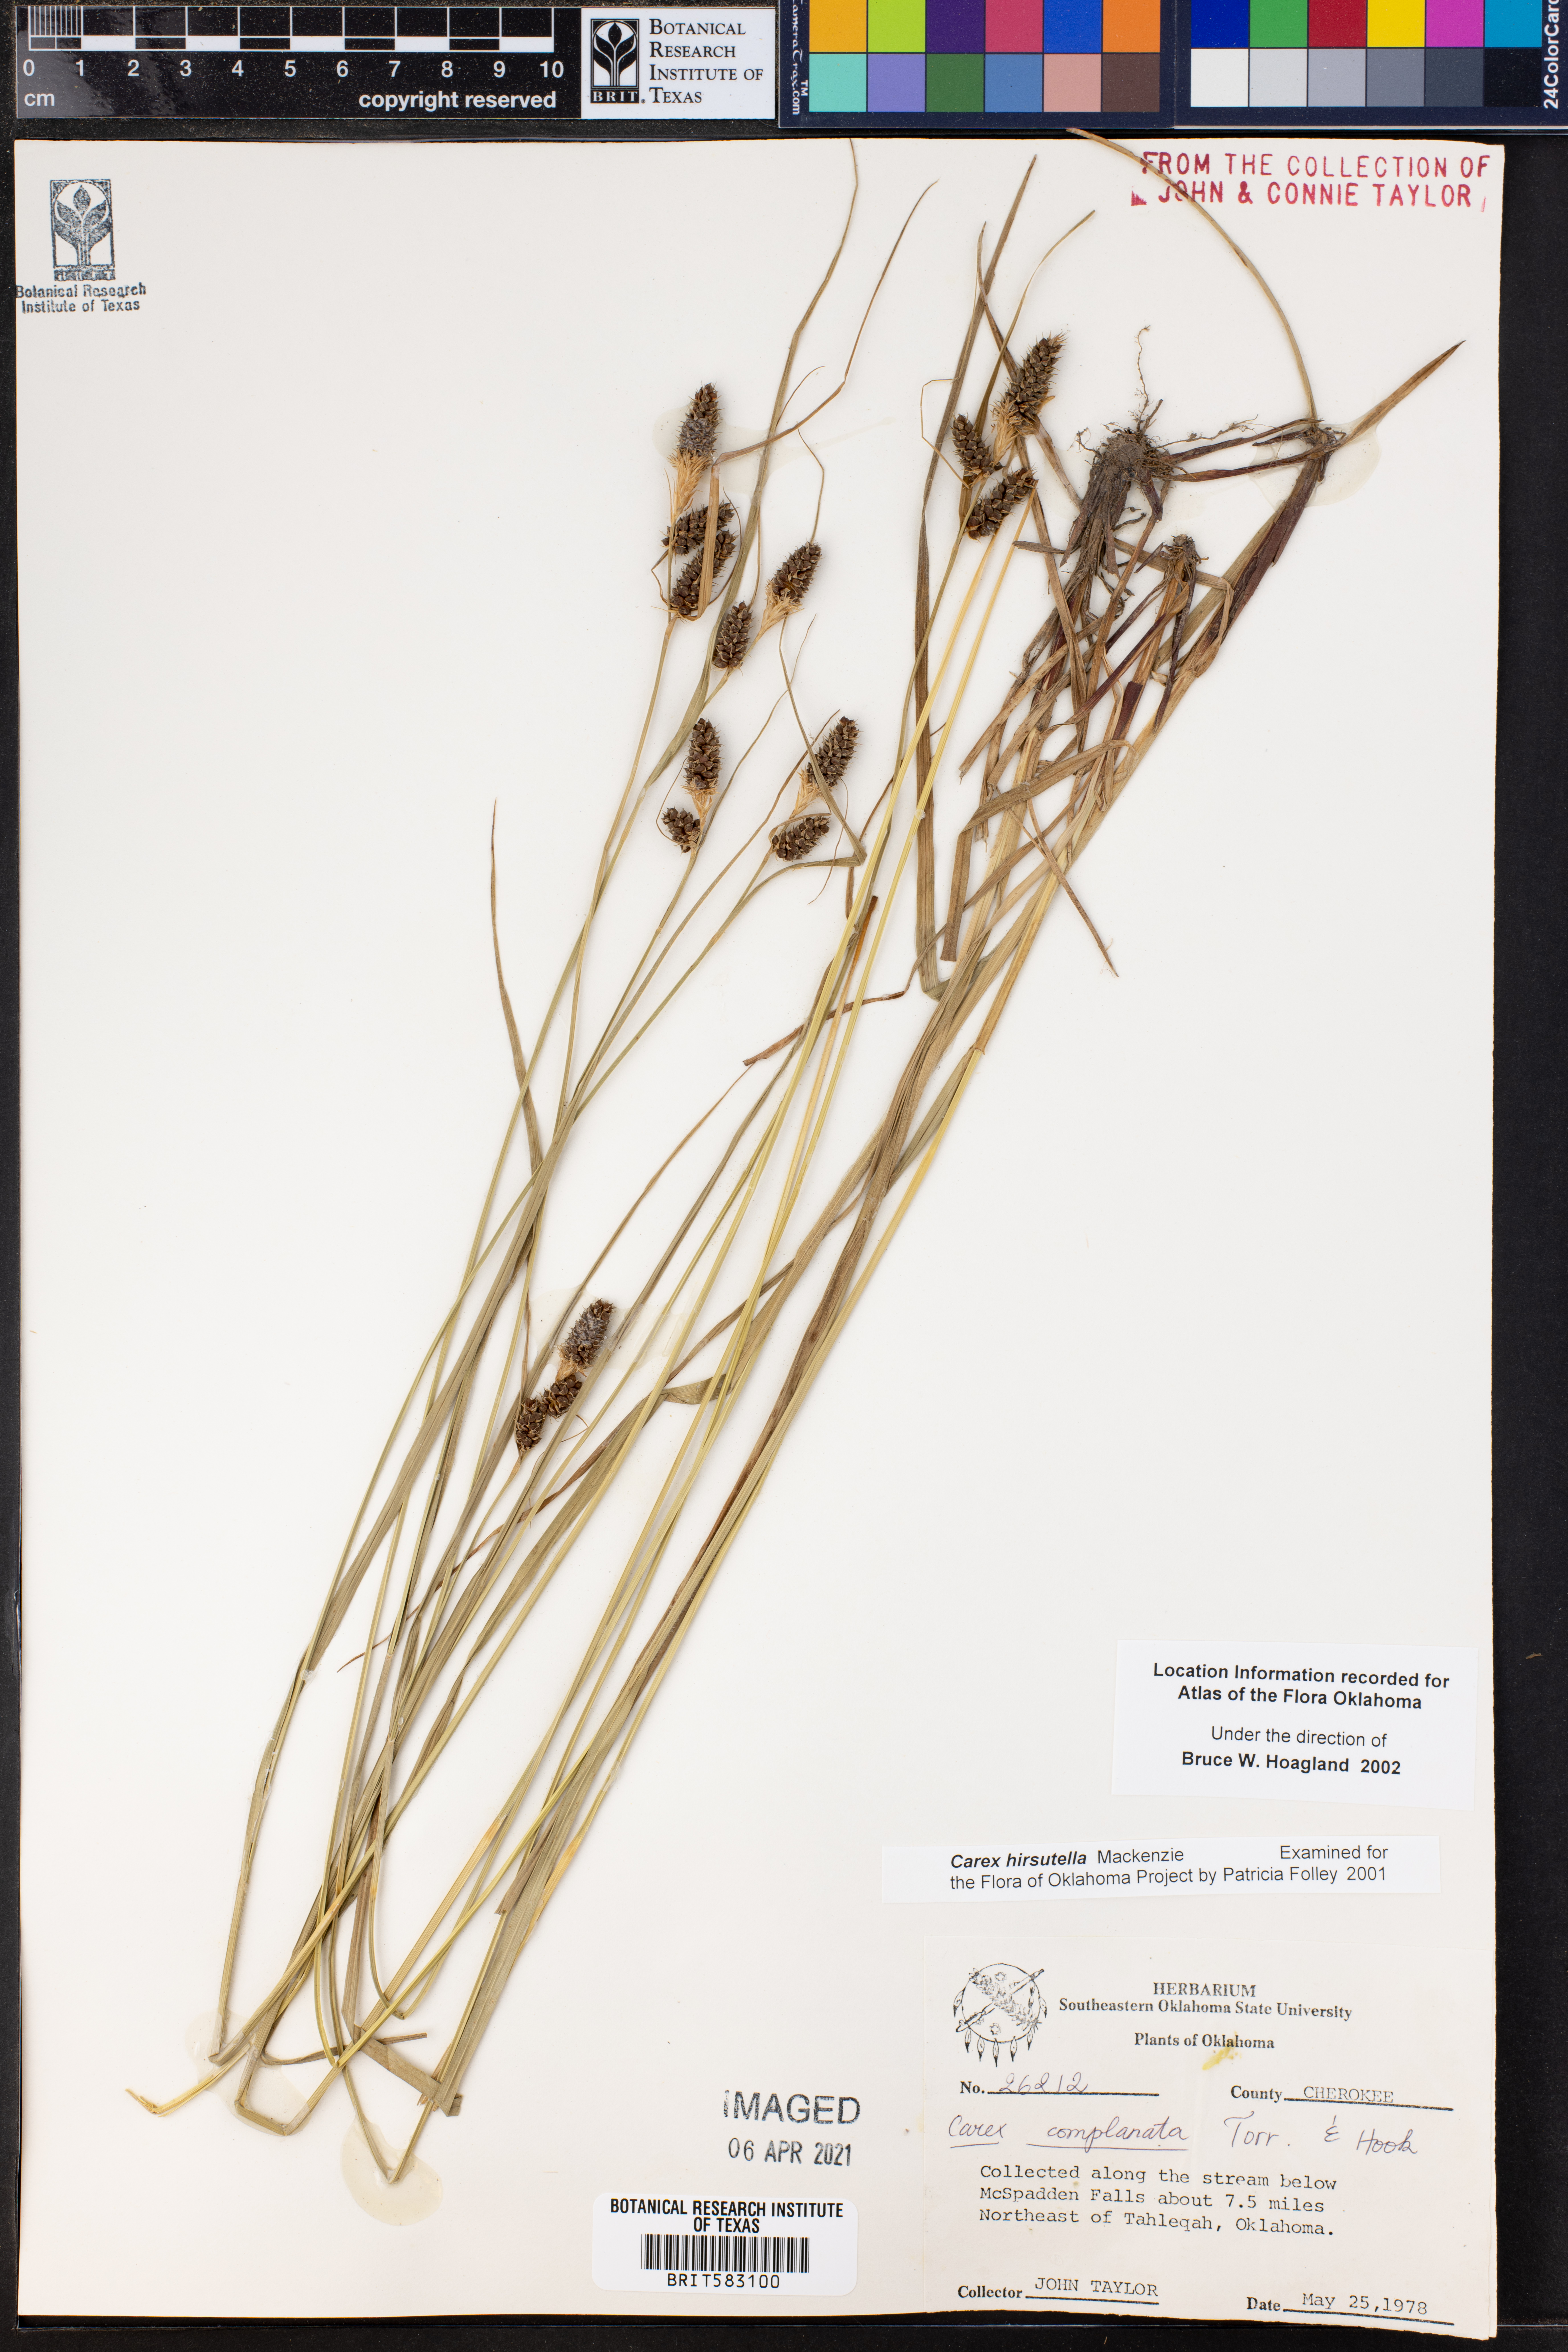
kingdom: Plantae
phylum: Tracheophyta
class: Liliopsida
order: Poales
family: Cyperaceae
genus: Carex
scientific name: Carex hirsutella
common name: Fuzzy wuzzy sedge
